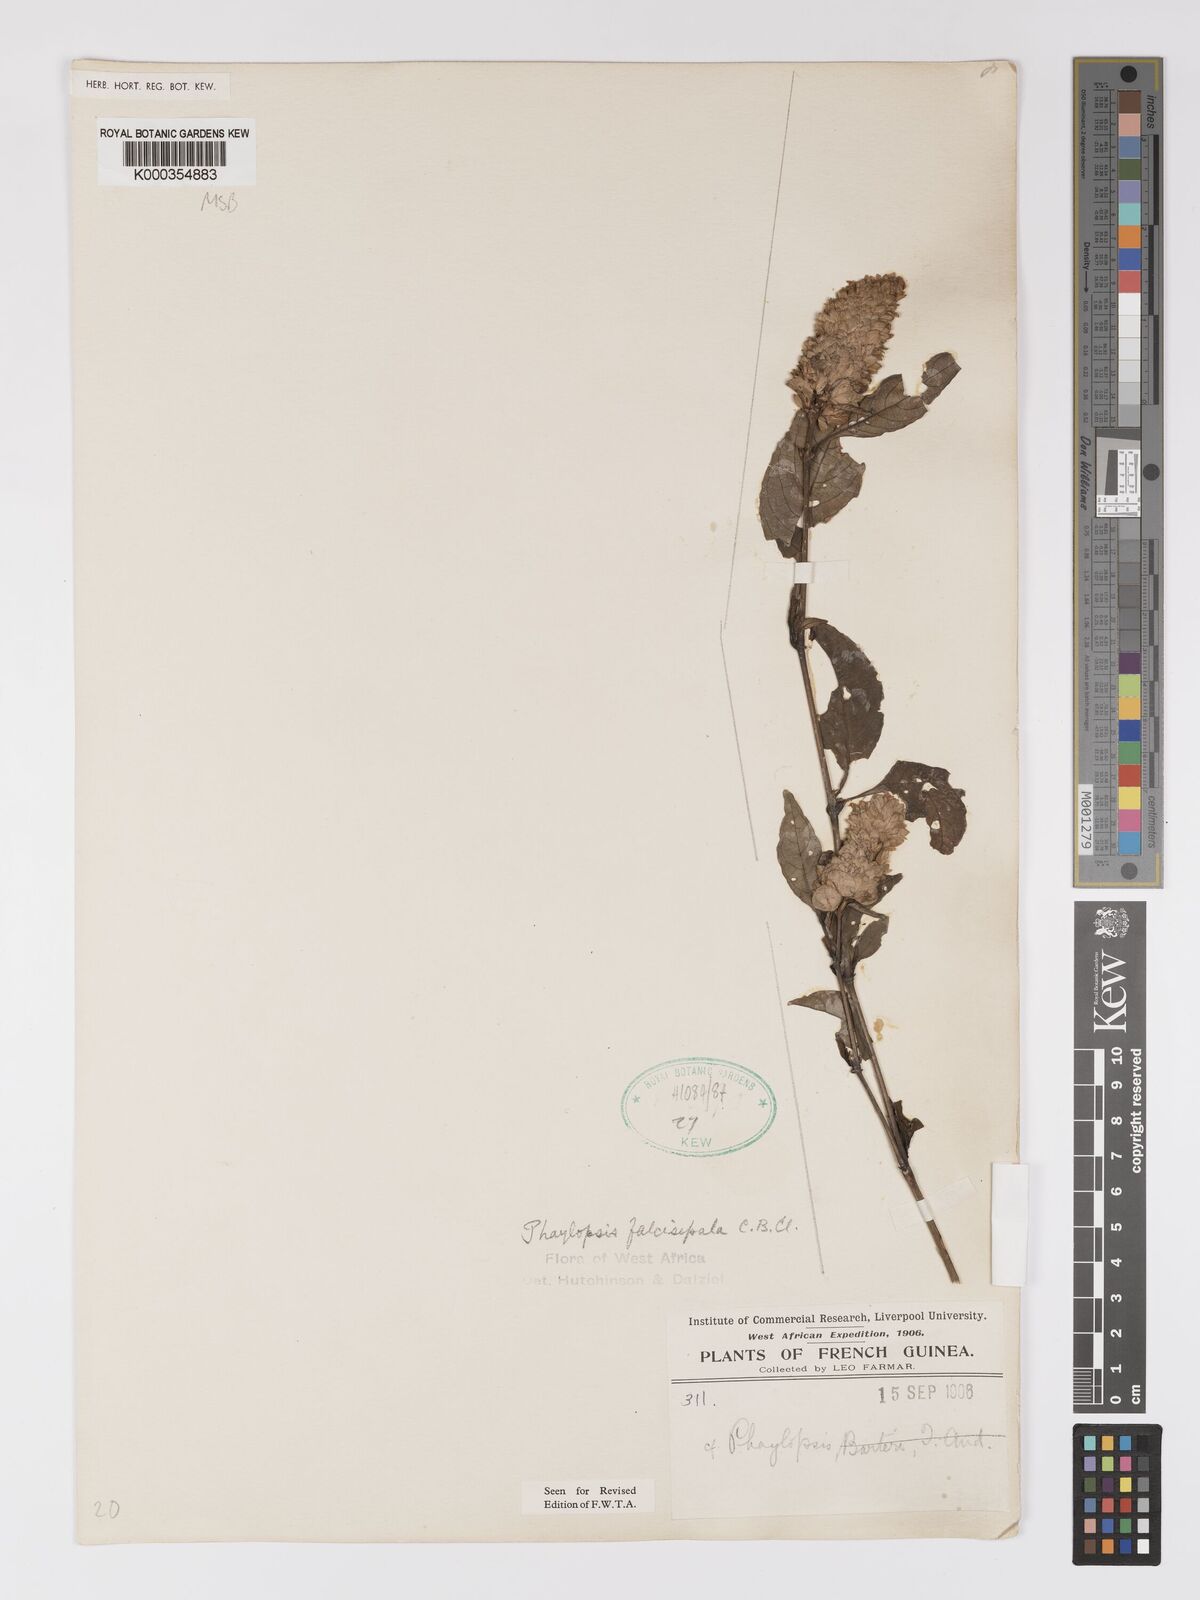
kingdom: Plantae
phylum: Tracheophyta
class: Magnoliopsida
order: Lamiales
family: Acanthaceae
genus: Phaulopsis
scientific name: Phaulopsis imbricata
